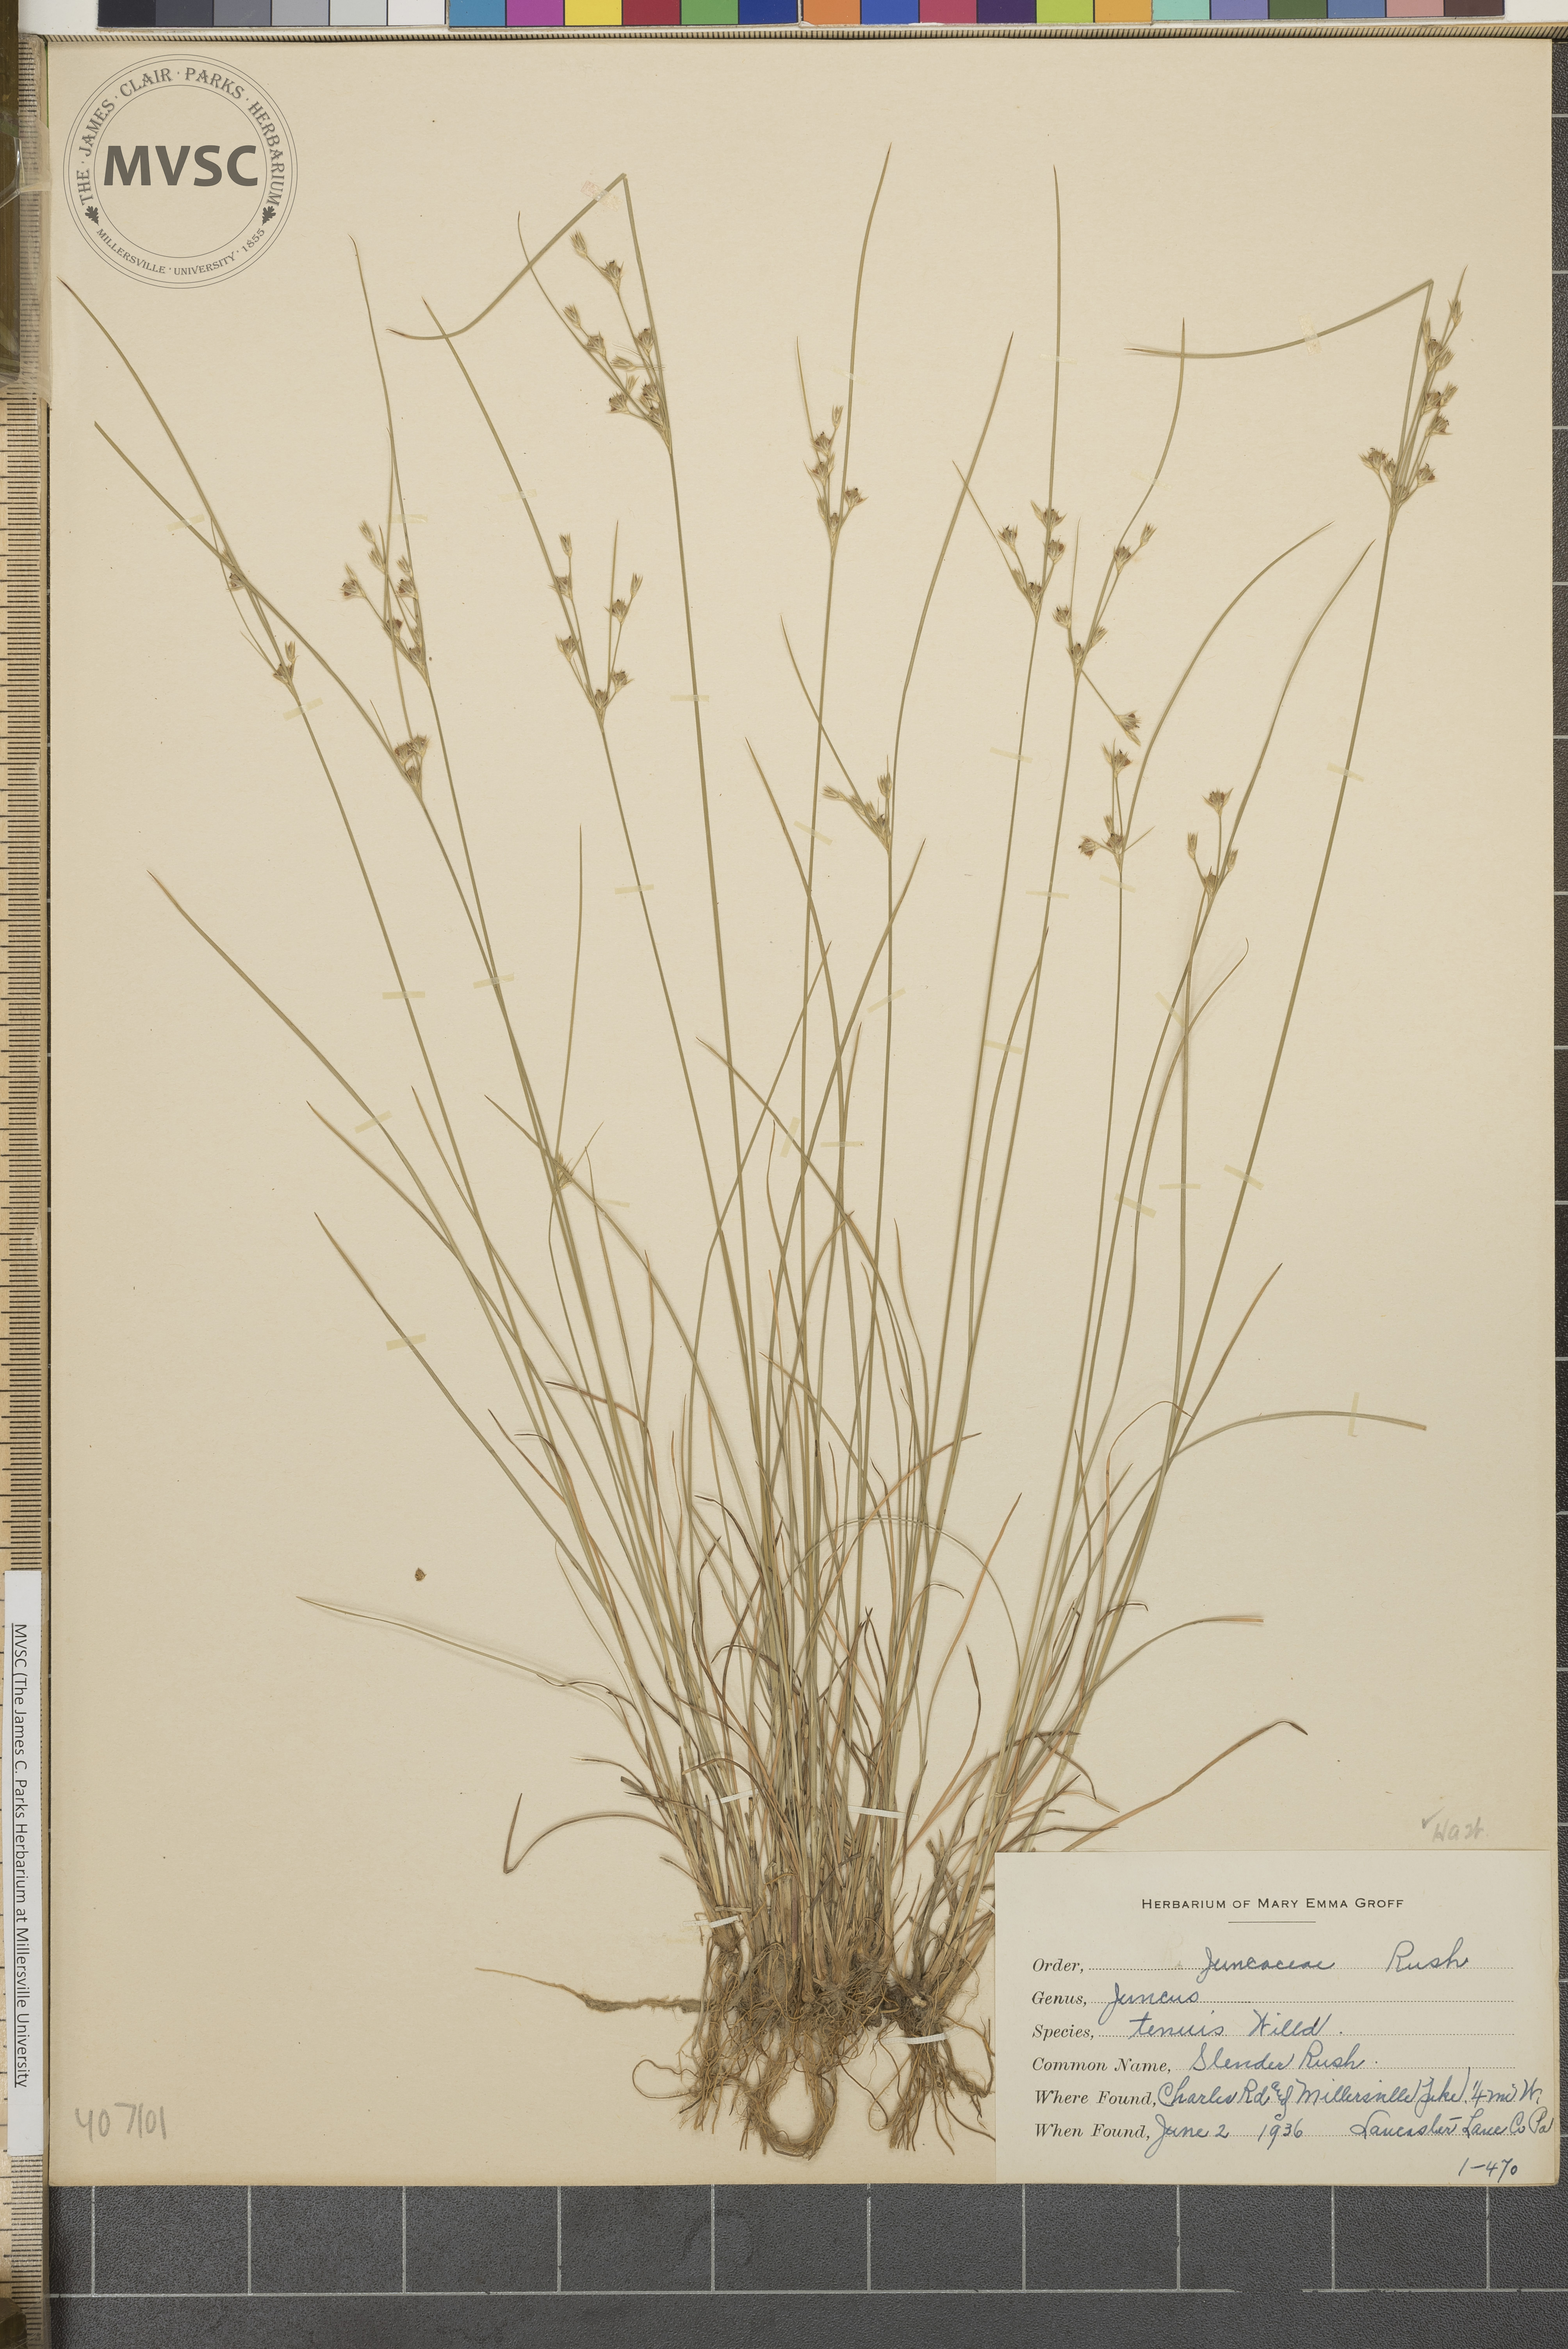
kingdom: Plantae
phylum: Tracheophyta
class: Liliopsida
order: Poales
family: Juncaceae
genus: Juncus
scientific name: Juncus tenuis
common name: poverty rush
